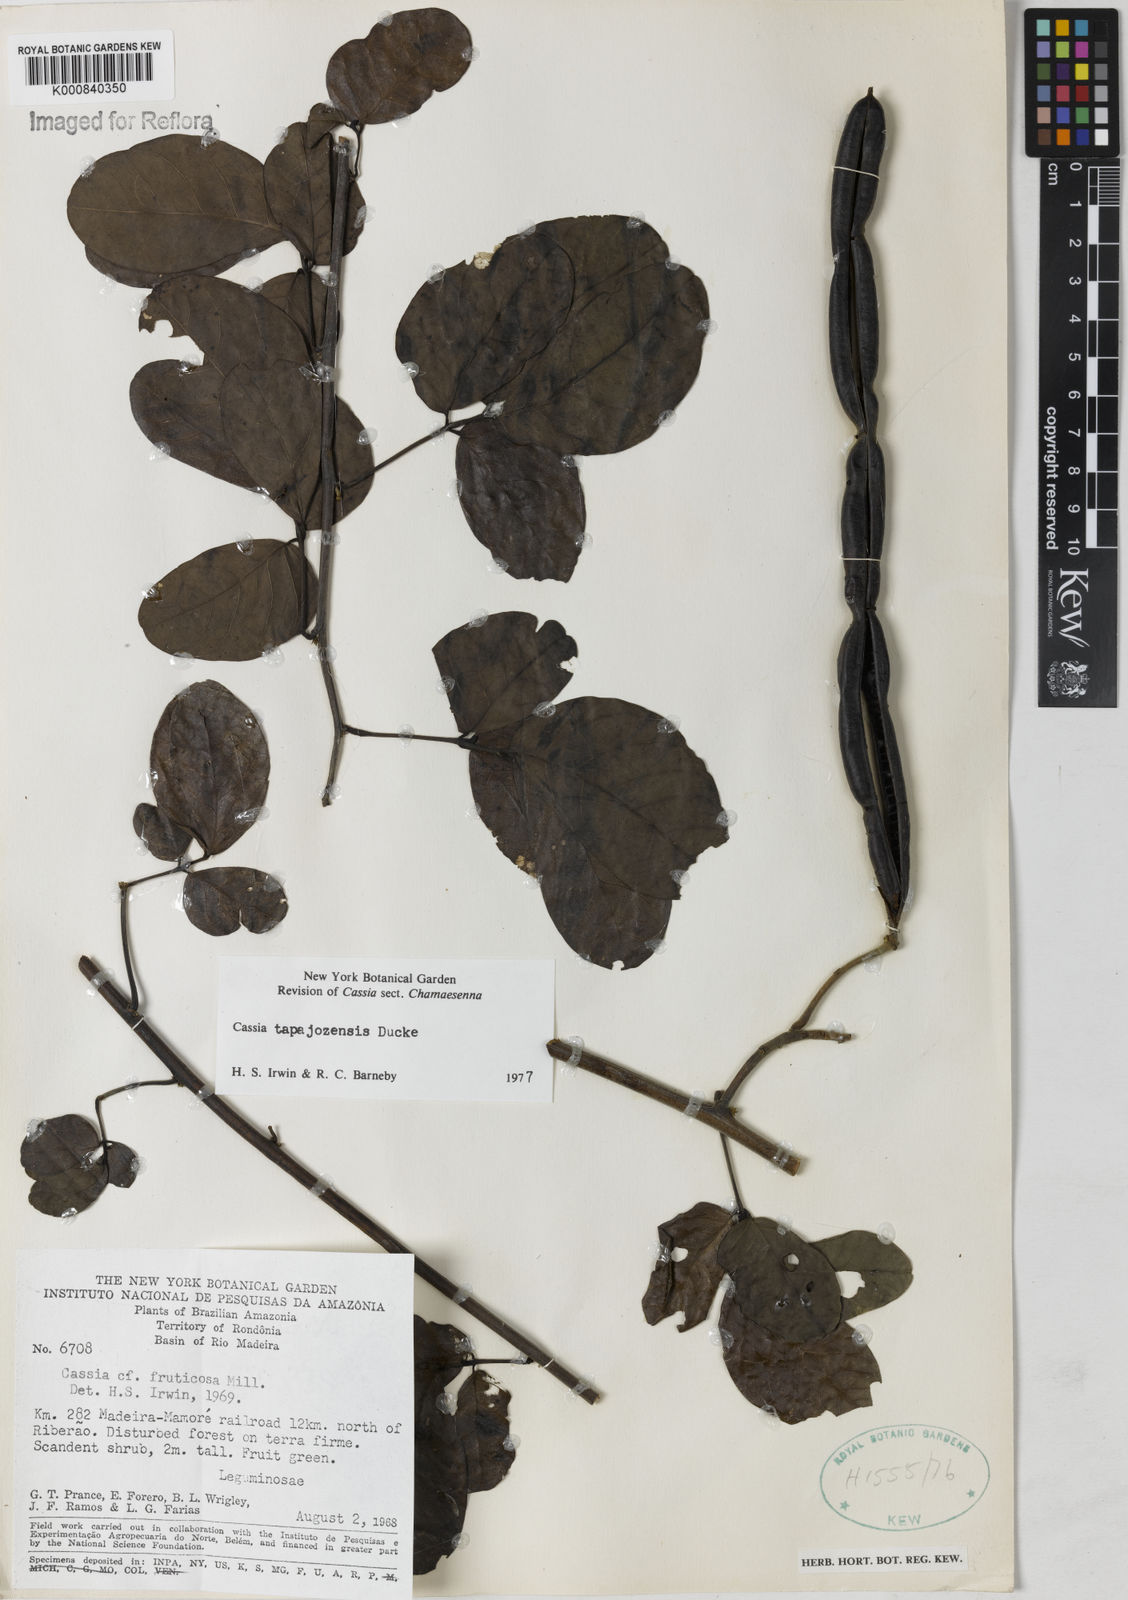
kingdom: Plantae
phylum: Tracheophyta
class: Magnoliopsida
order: Fabales
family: Fabaceae
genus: Senna
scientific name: Senna tapajozensis
